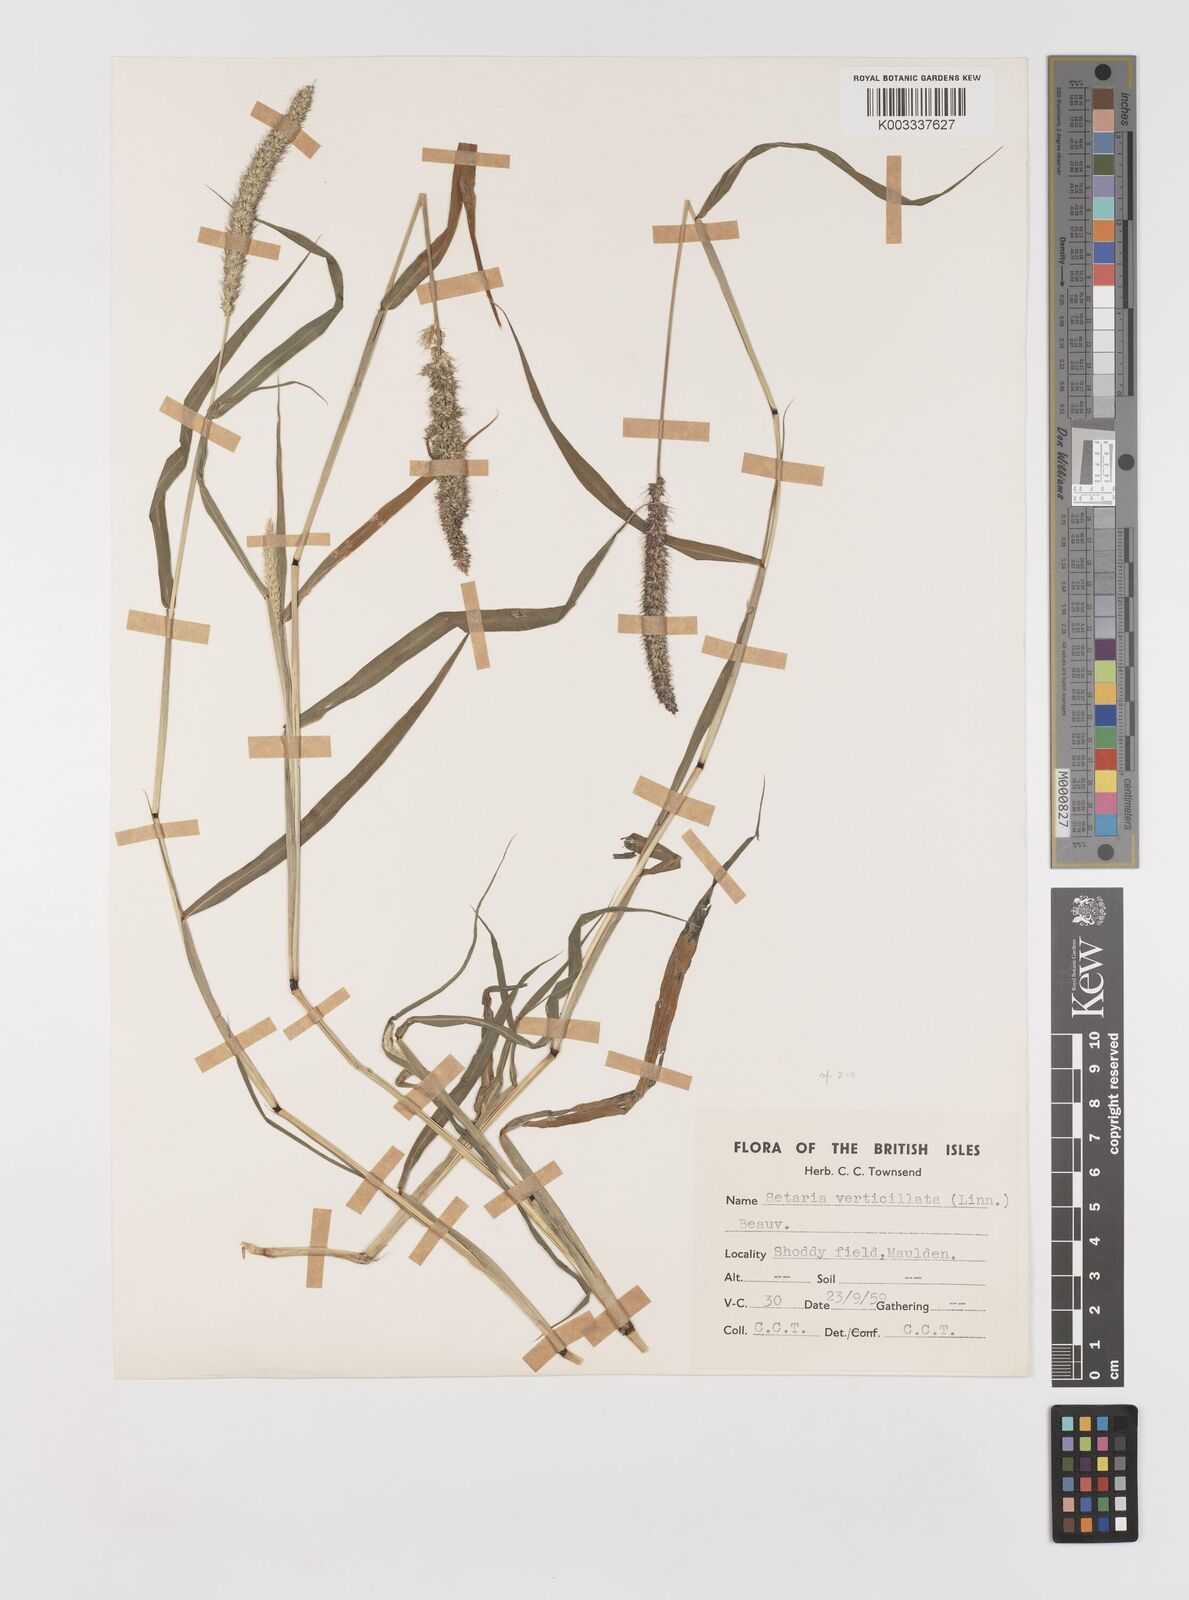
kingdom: Plantae
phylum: Tracheophyta
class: Liliopsida
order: Poales
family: Poaceae
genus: Setaria
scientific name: Setaria verticillata
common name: Hooked bristlegrass
